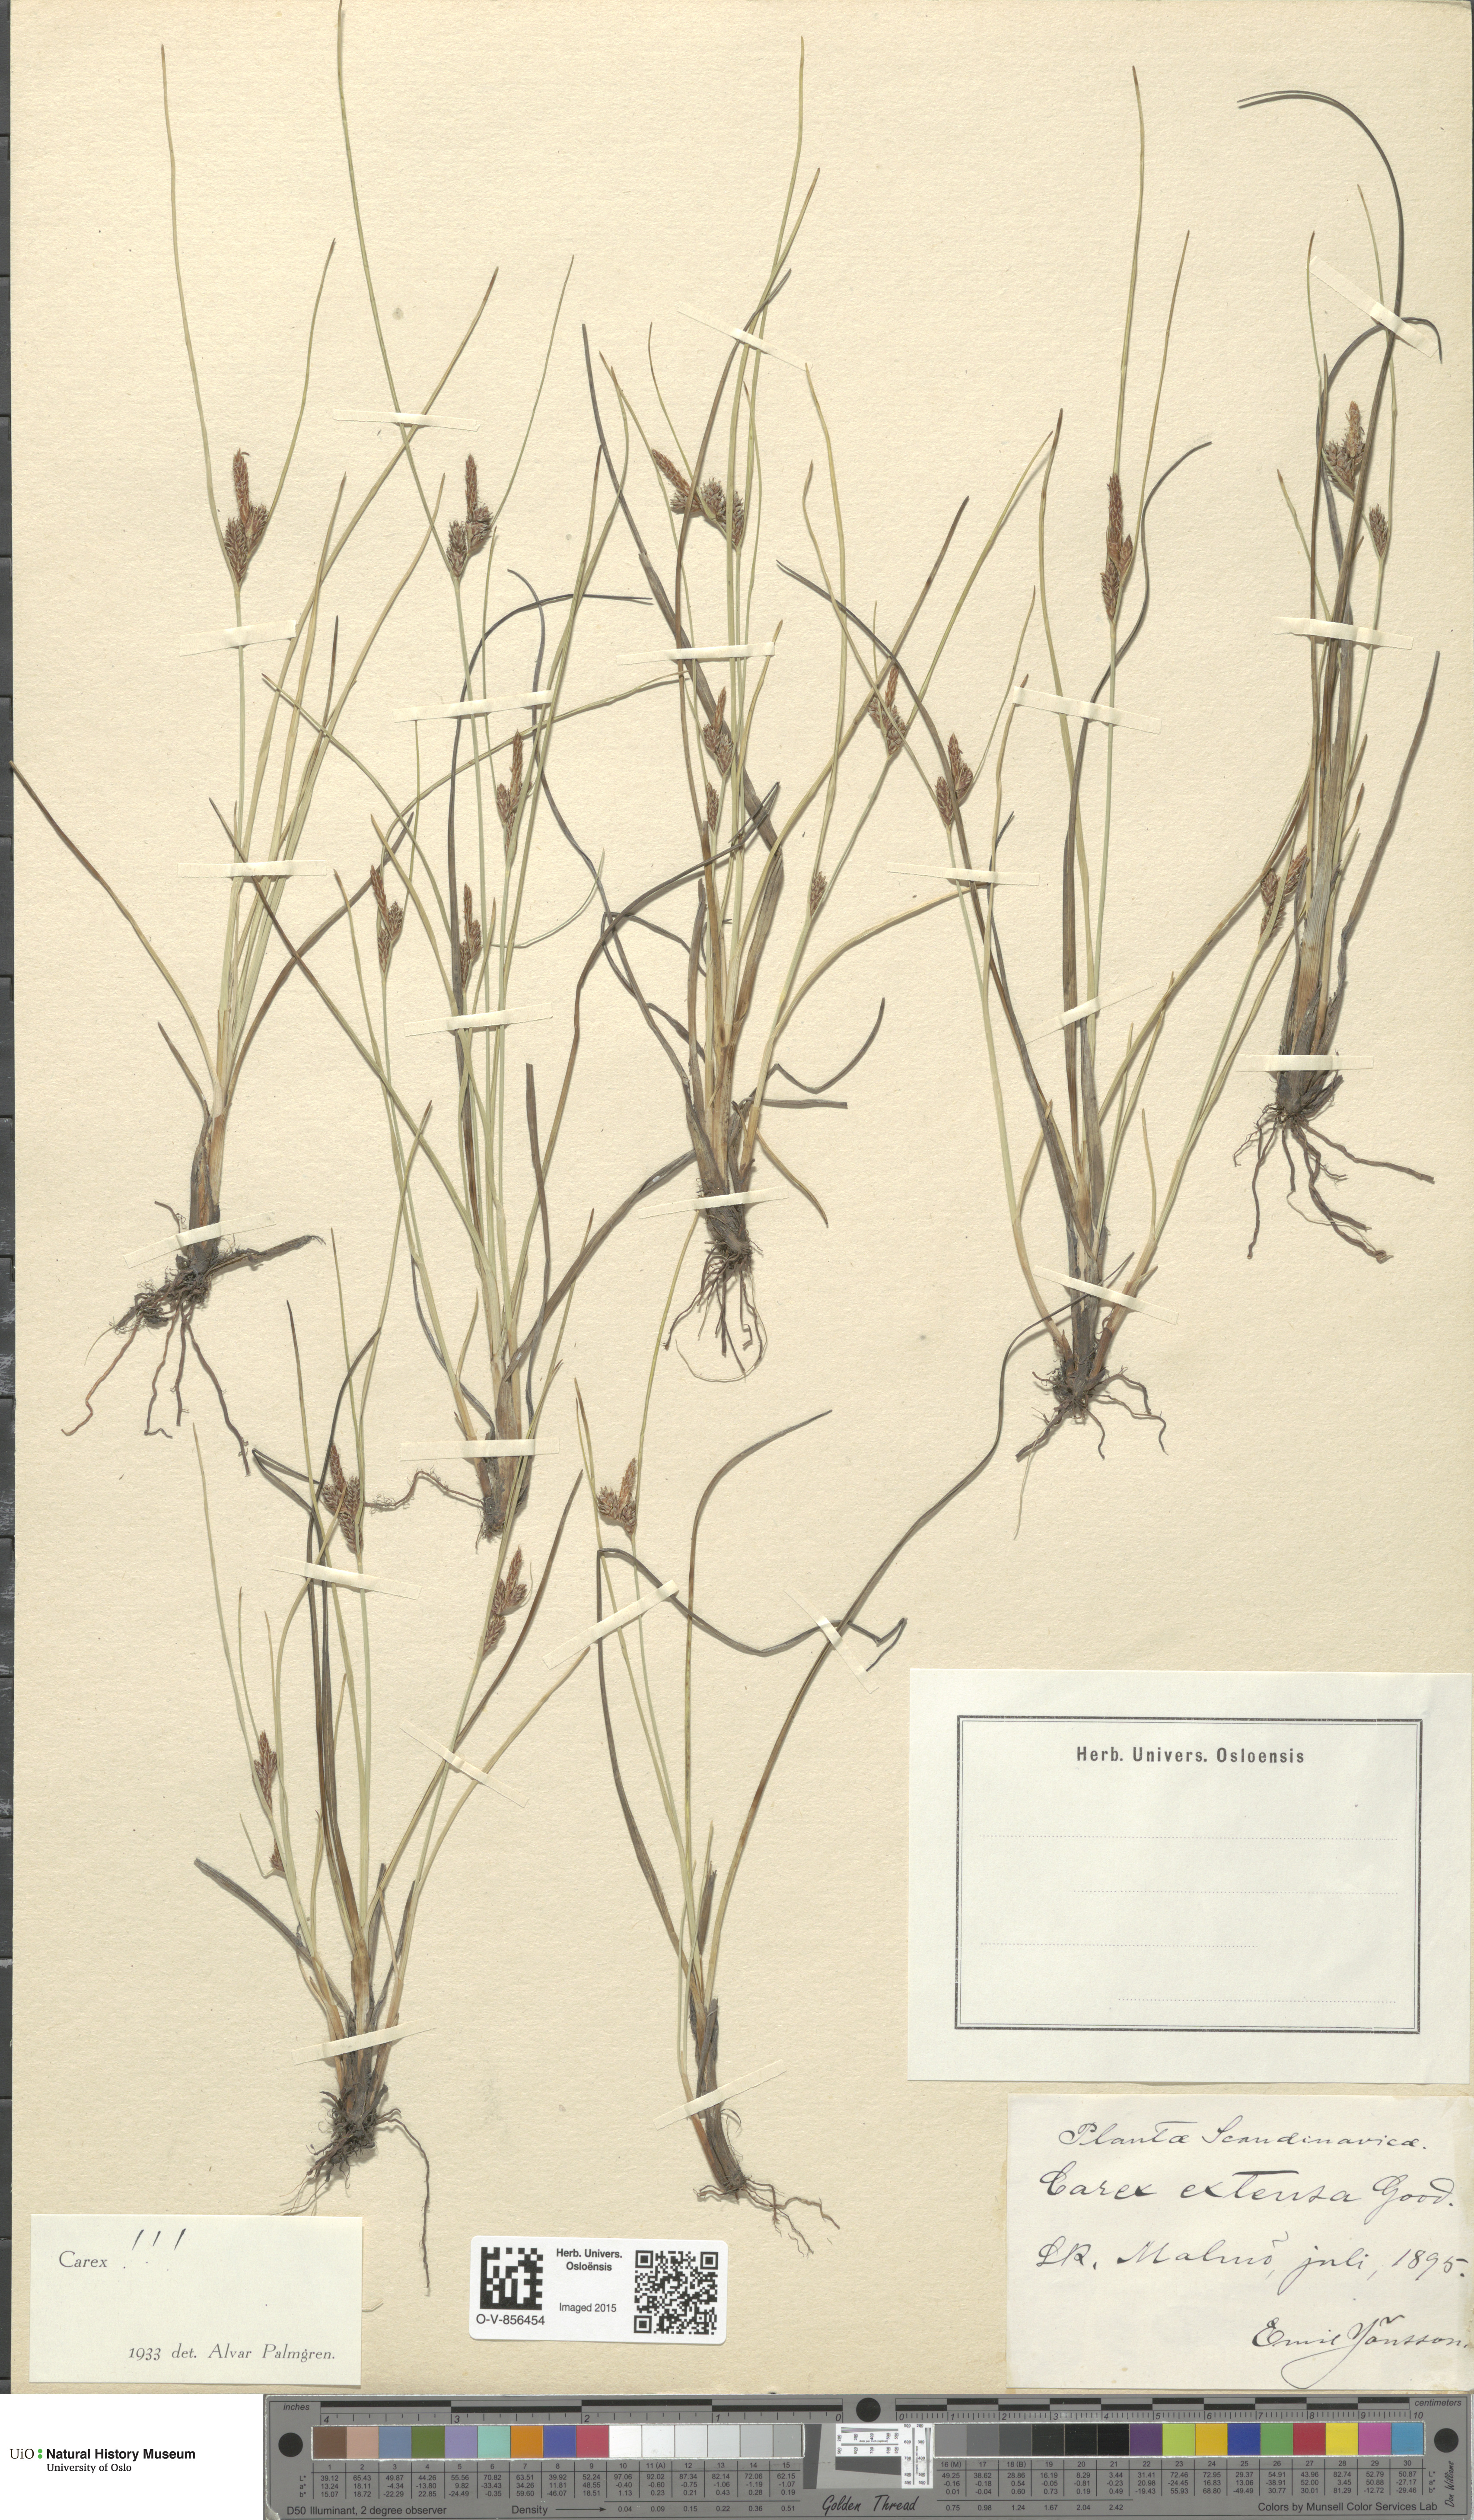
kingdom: Plantae
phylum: Tracheophyta
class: Liliopsida
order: Poales
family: Cyperaceae
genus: Carex
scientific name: Carex extensa
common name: Long-bracted sedge
